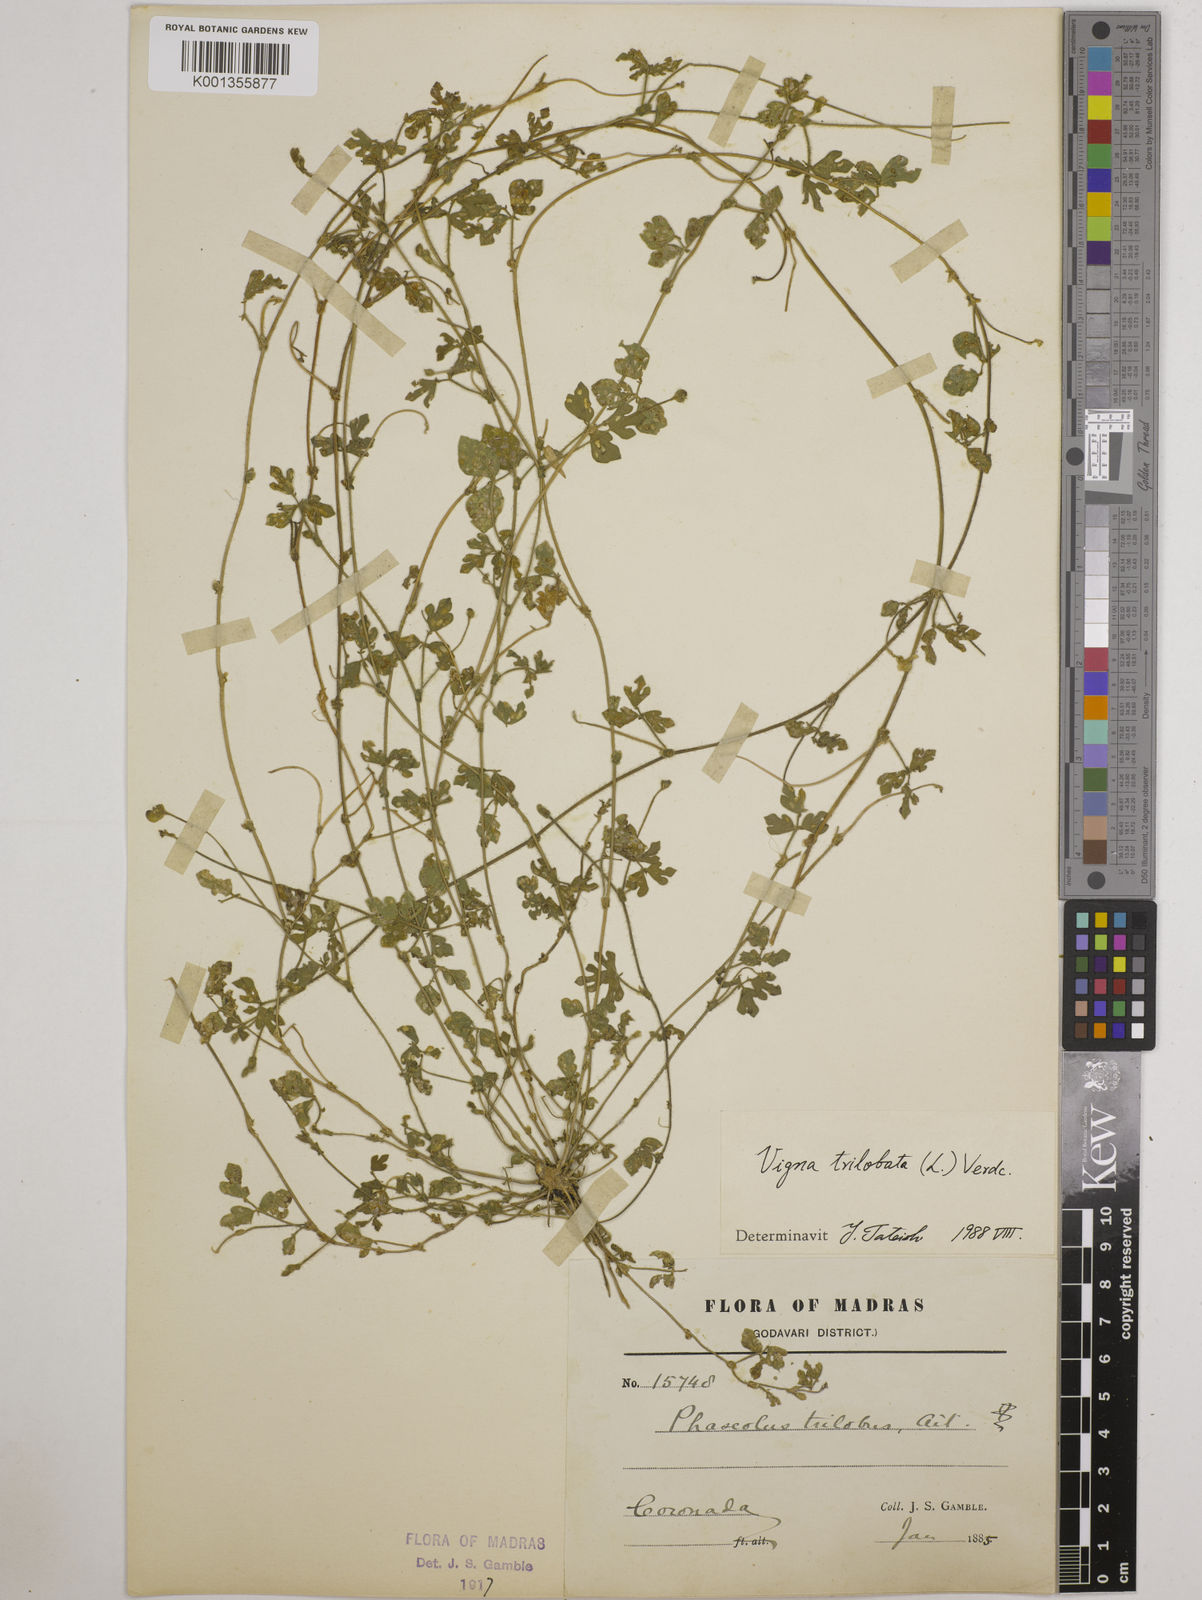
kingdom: Plantae
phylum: Tracheophyta
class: Magnoliopsida
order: Fabales
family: Fabaceae
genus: Vigna
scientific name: Vigna trilobata
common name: Jungli-bean
